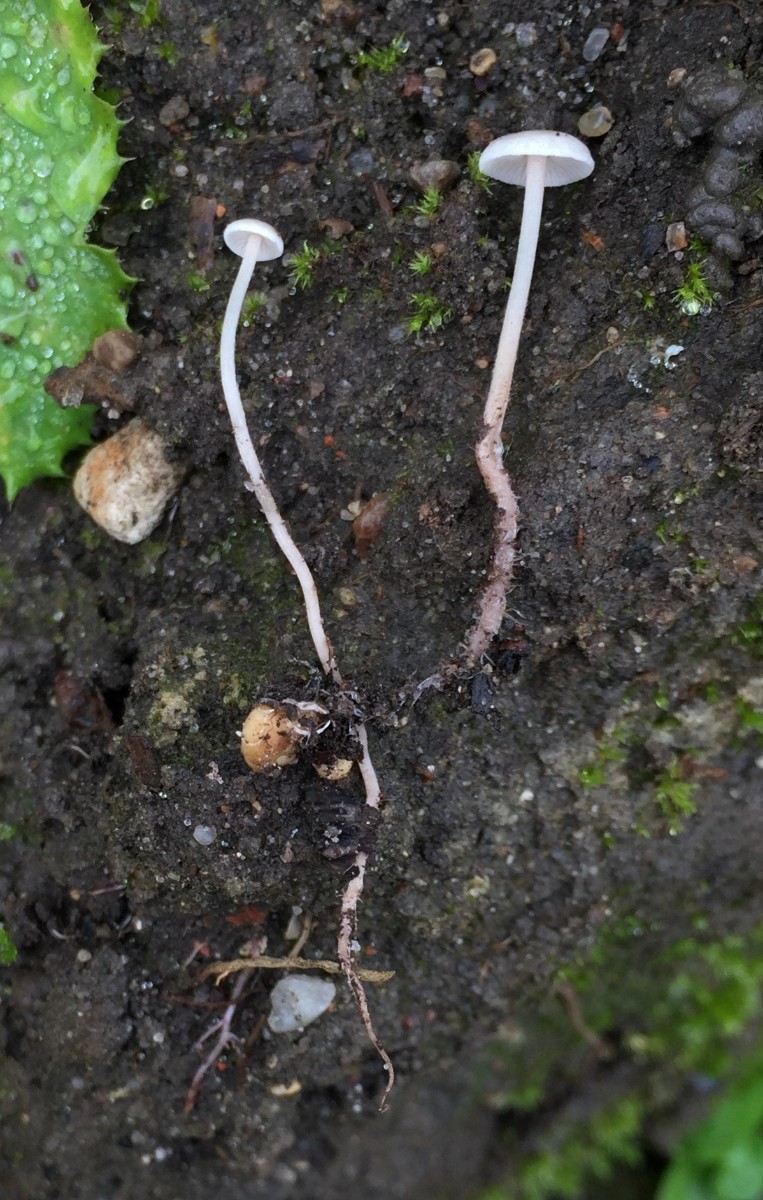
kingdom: Fungi
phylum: Basidiomycota
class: Agaricomycetes
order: Agaricales
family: Tricholomataceae
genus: Collybia
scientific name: Collybia cookei
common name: gulknoldet lighat
